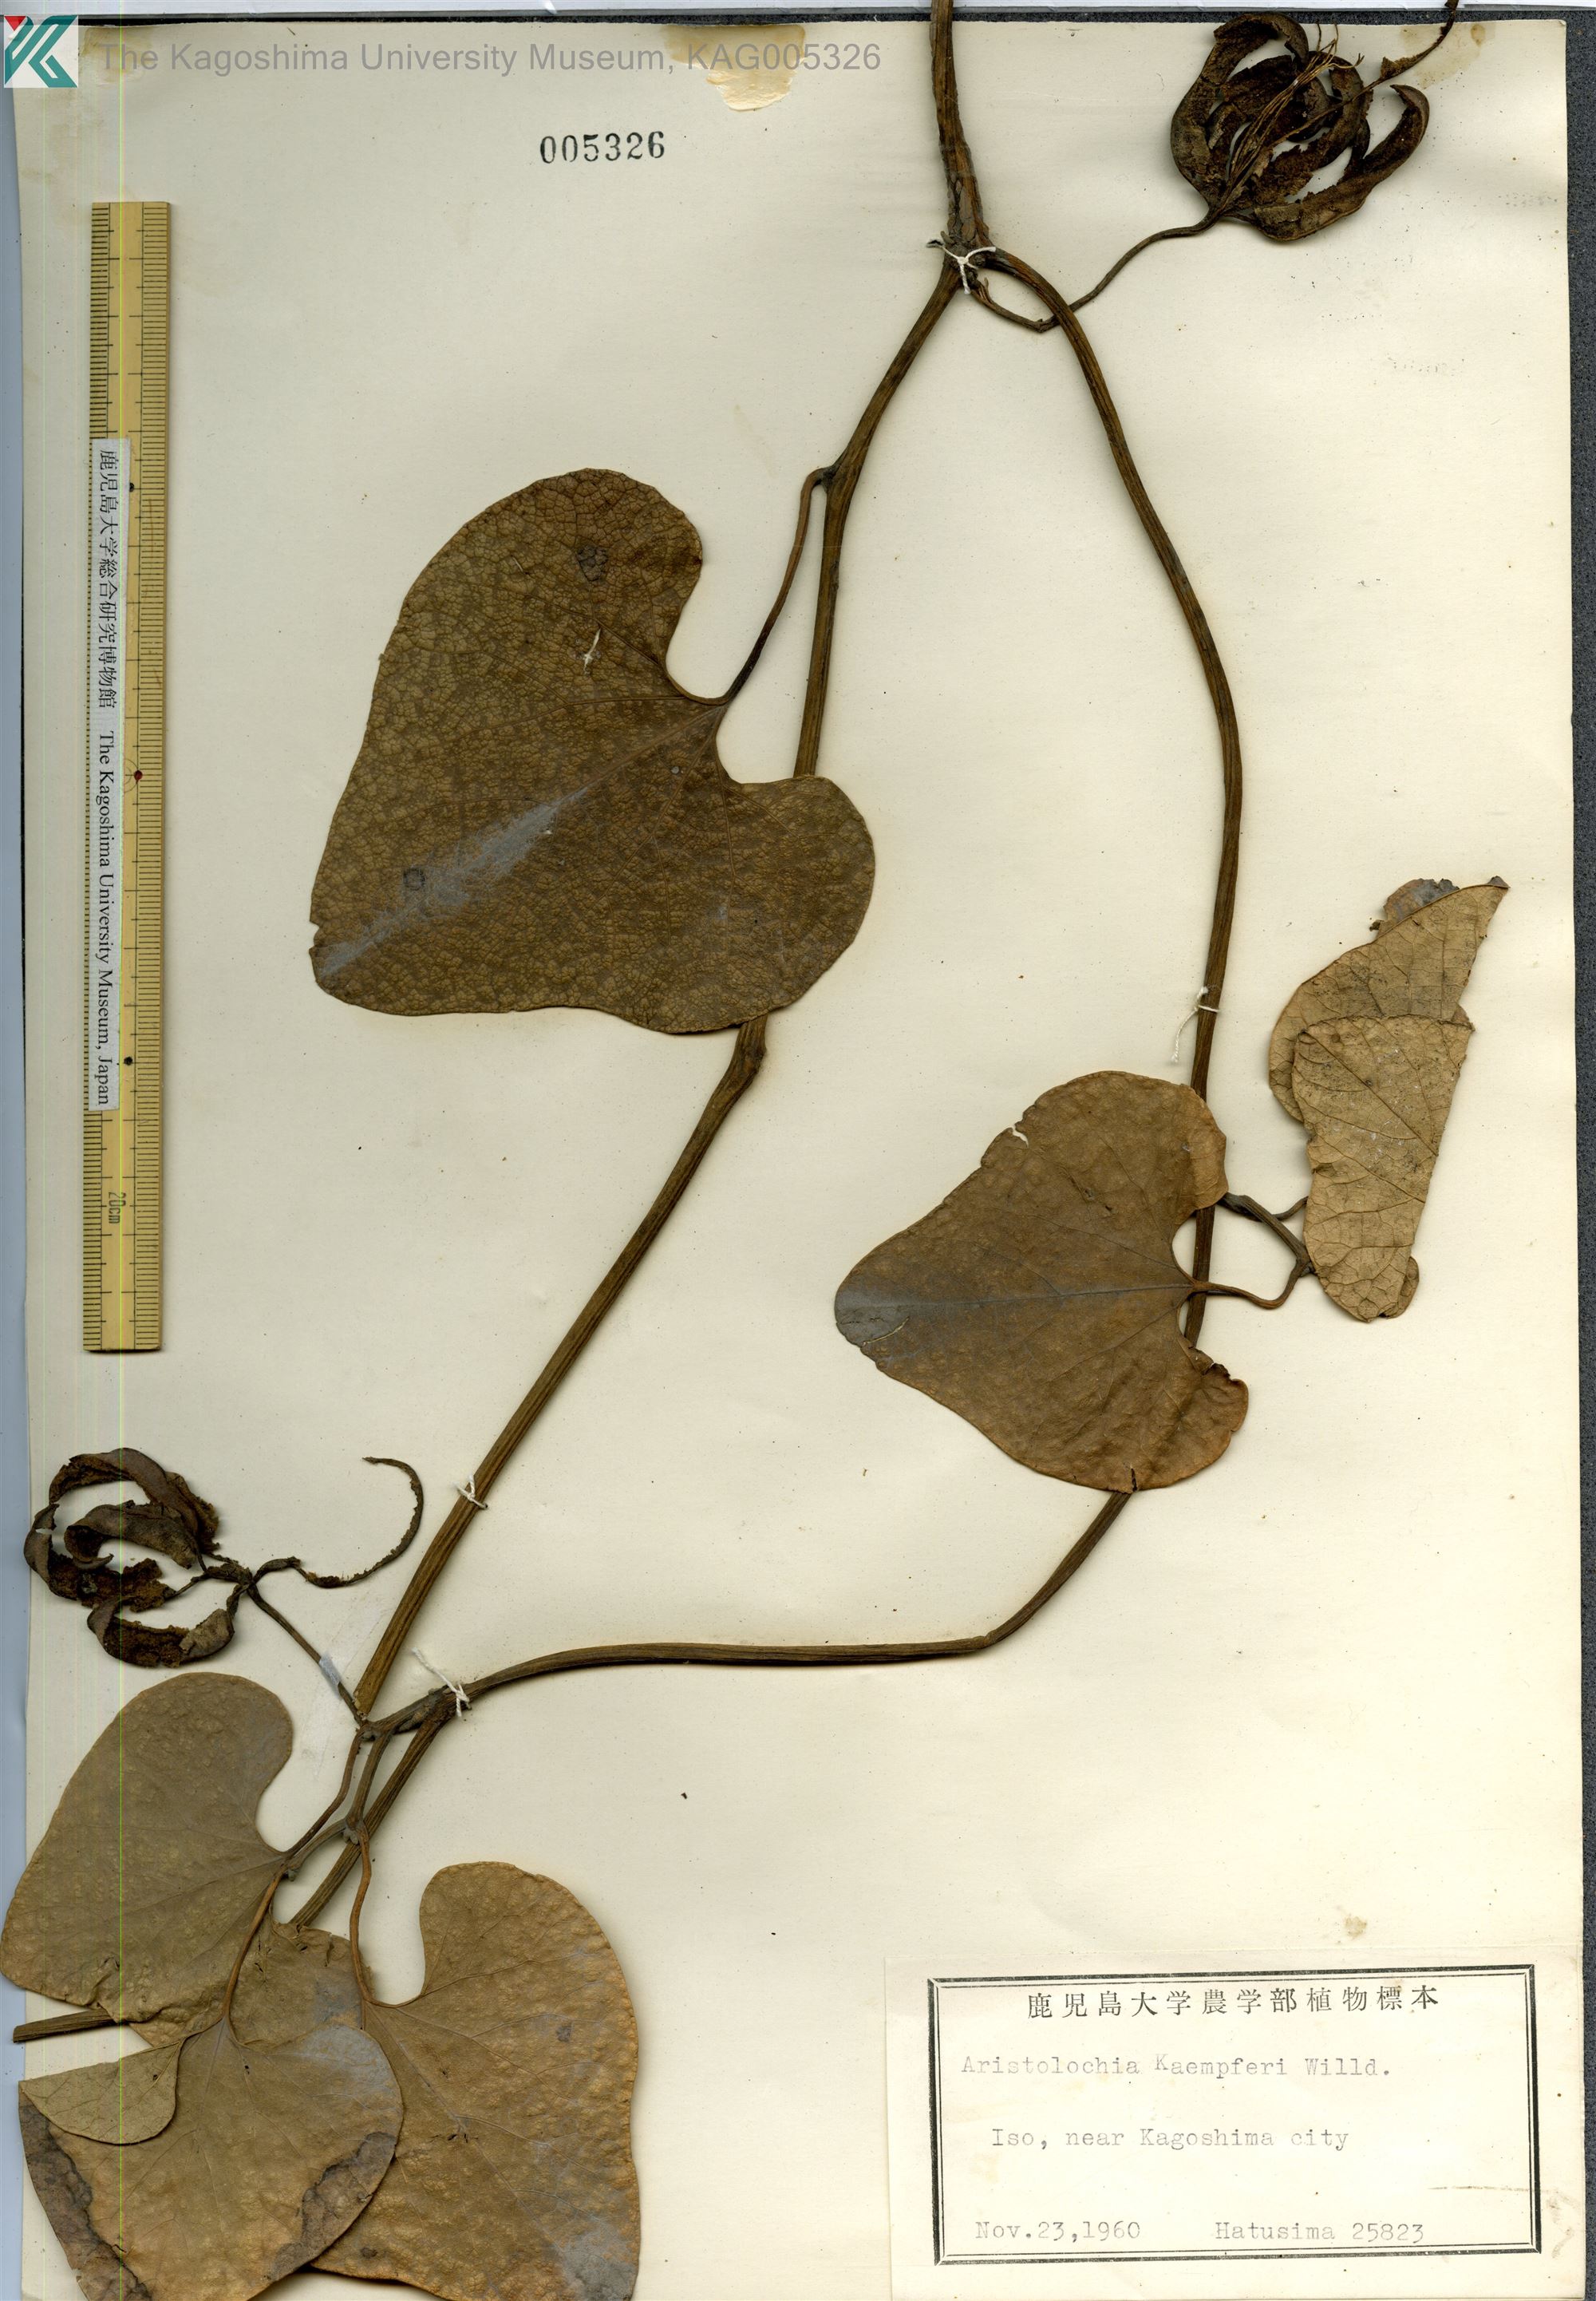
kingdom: Plantae
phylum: Tracheophyta
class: Magnoliopsida
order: Piperales
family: Aristolochiaceae
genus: Isotrema
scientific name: Isotrema kaempferi
